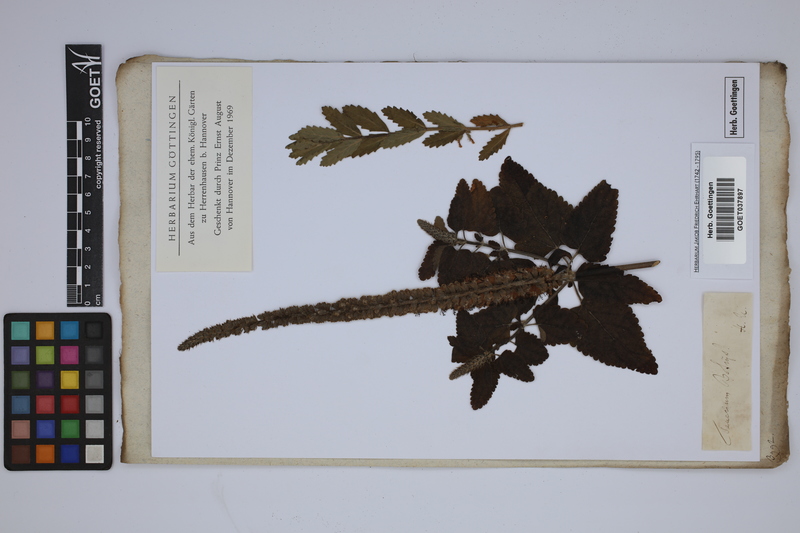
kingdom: Plantae
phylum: Tracheophyta
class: Magnoliopsida
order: Lamiales
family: Lamiaceae
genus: Teucrium
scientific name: Teucrium scorodonia
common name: Woodland germander
